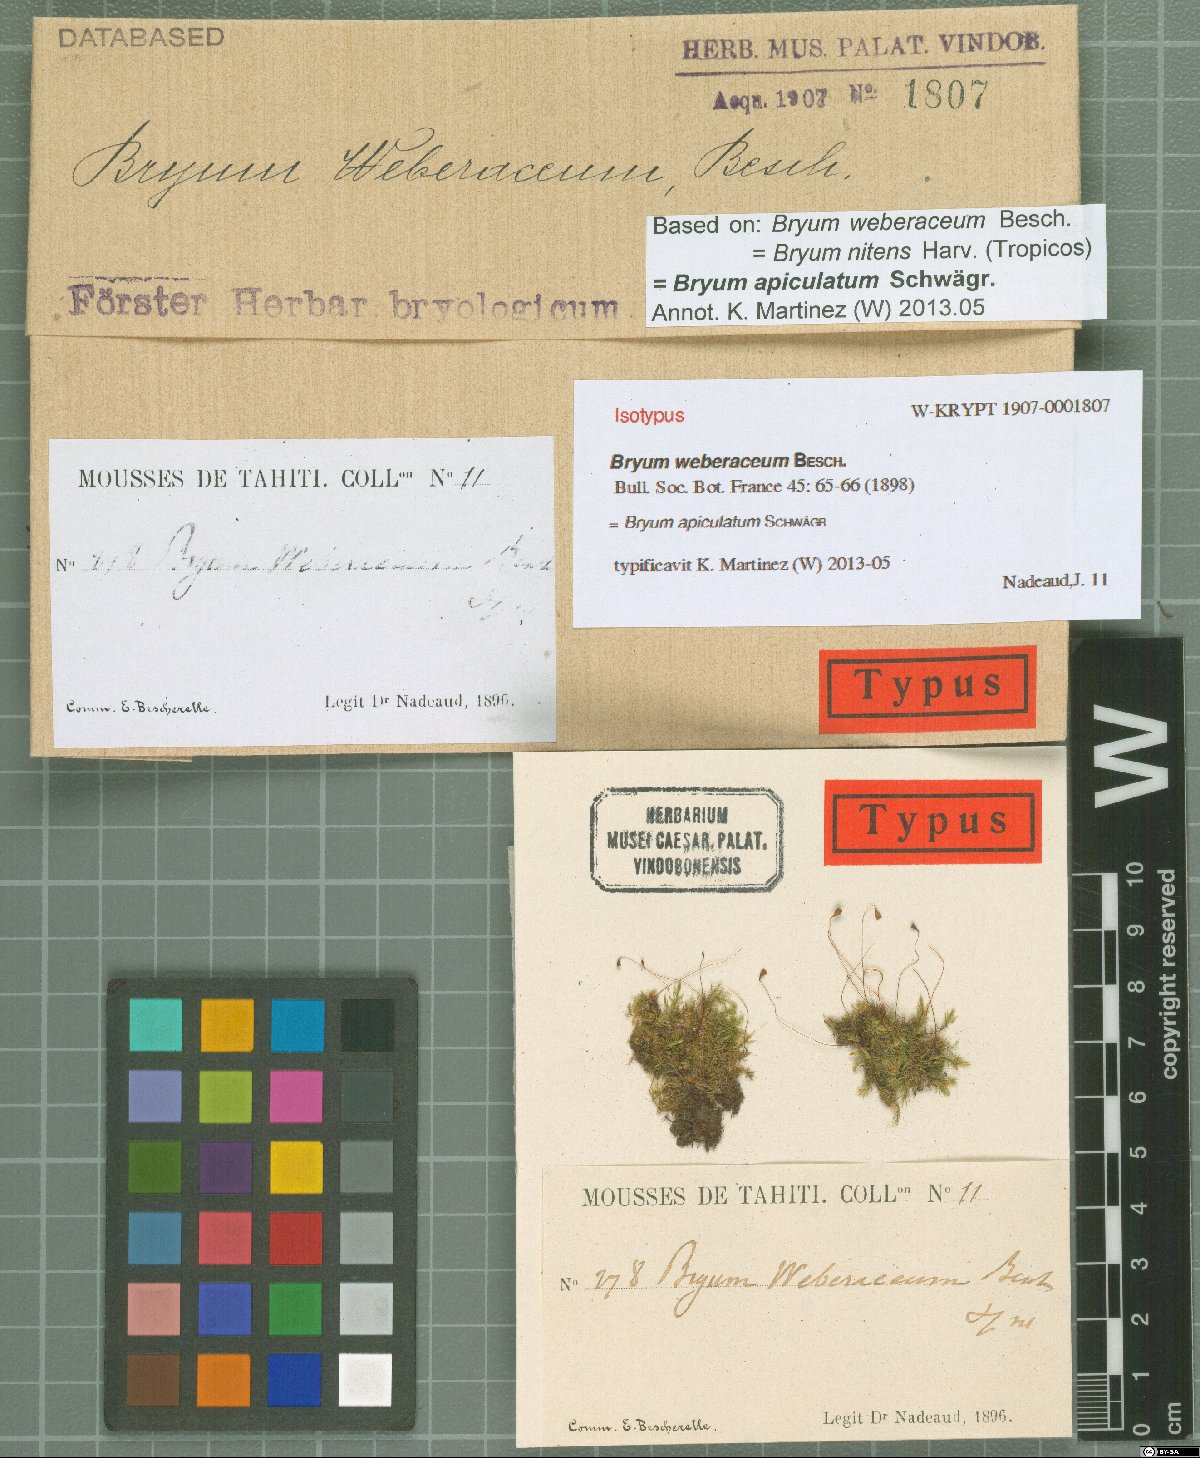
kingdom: Plantae
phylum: Bryophyta
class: Bryopsida
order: Bryales
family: Bryaceae
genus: Gemmabryum
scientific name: Gemmabryum apiculatum
